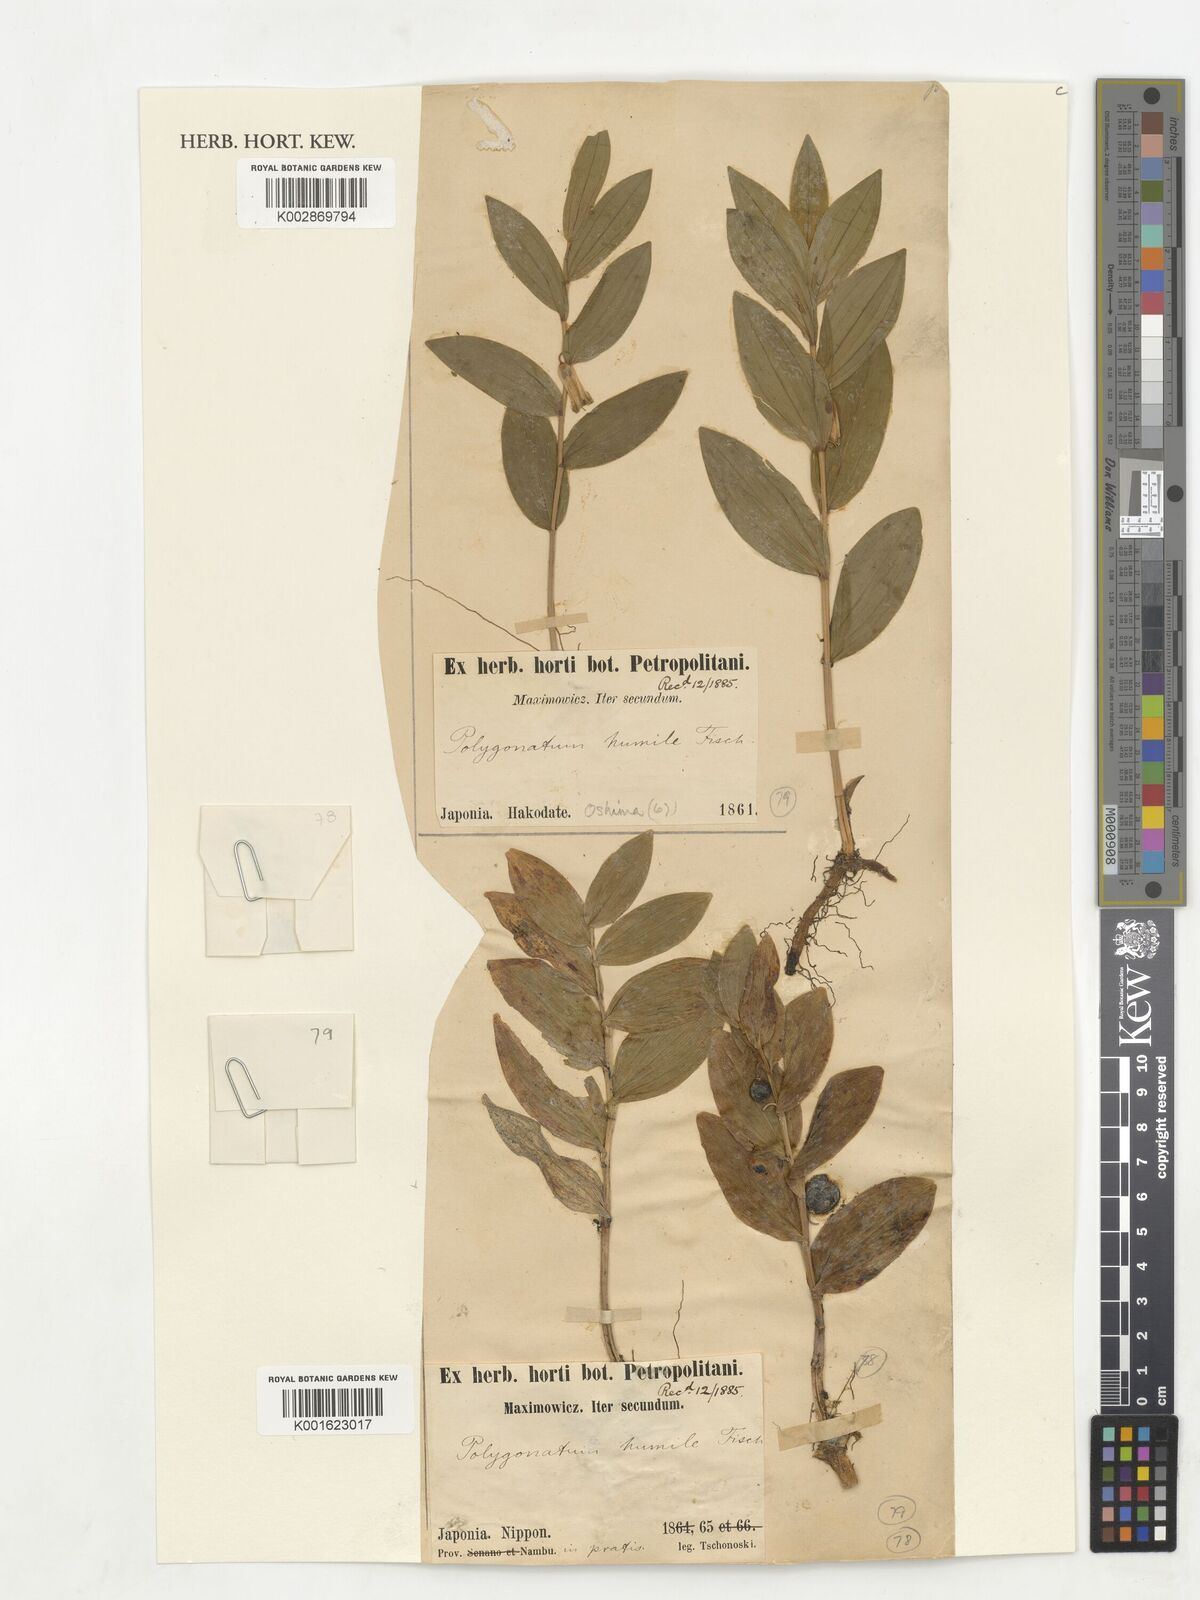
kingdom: Plantae
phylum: Tracheophyta
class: Liliopsida
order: Asparagales
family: Asparagaceae
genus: Polygonatum
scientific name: Polygonatum humile
